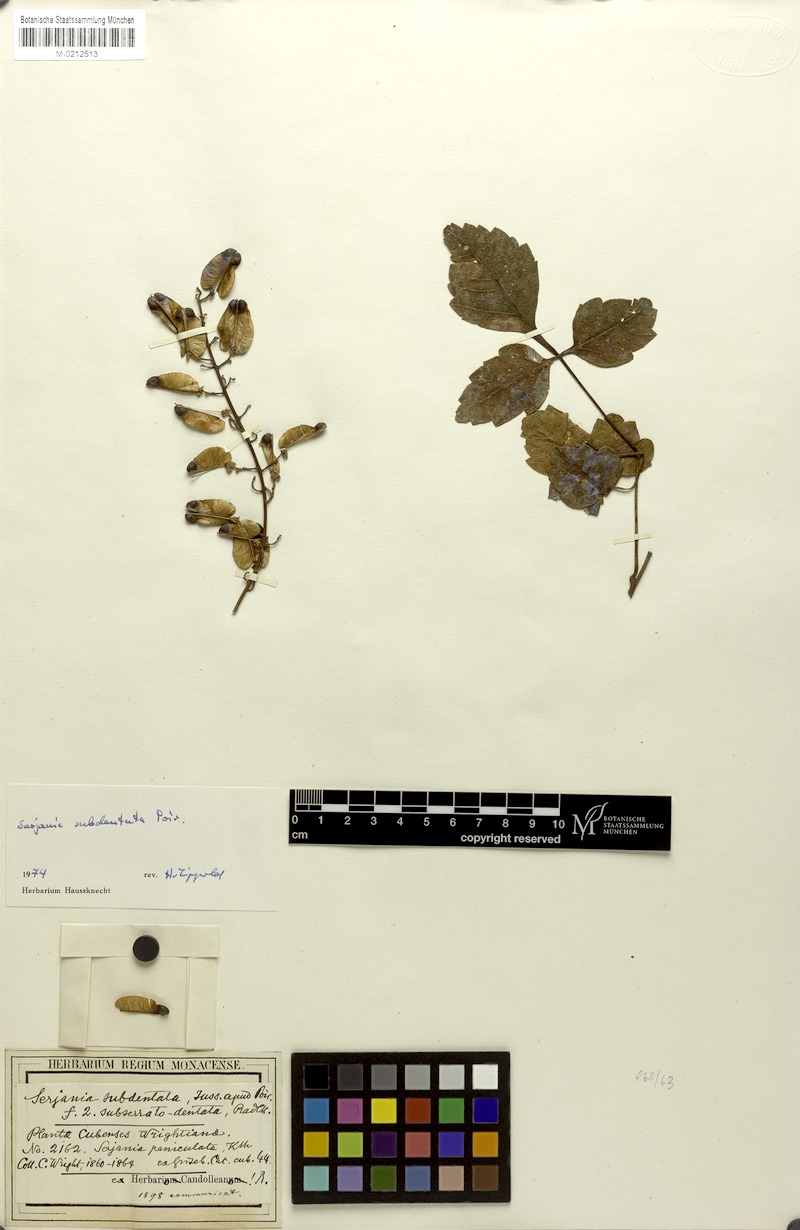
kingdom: Plantae
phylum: Tracheophyta
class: Magnoliopsida
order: Sapindales
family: Sapindaceae
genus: Serjania
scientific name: Serjania subdentata
